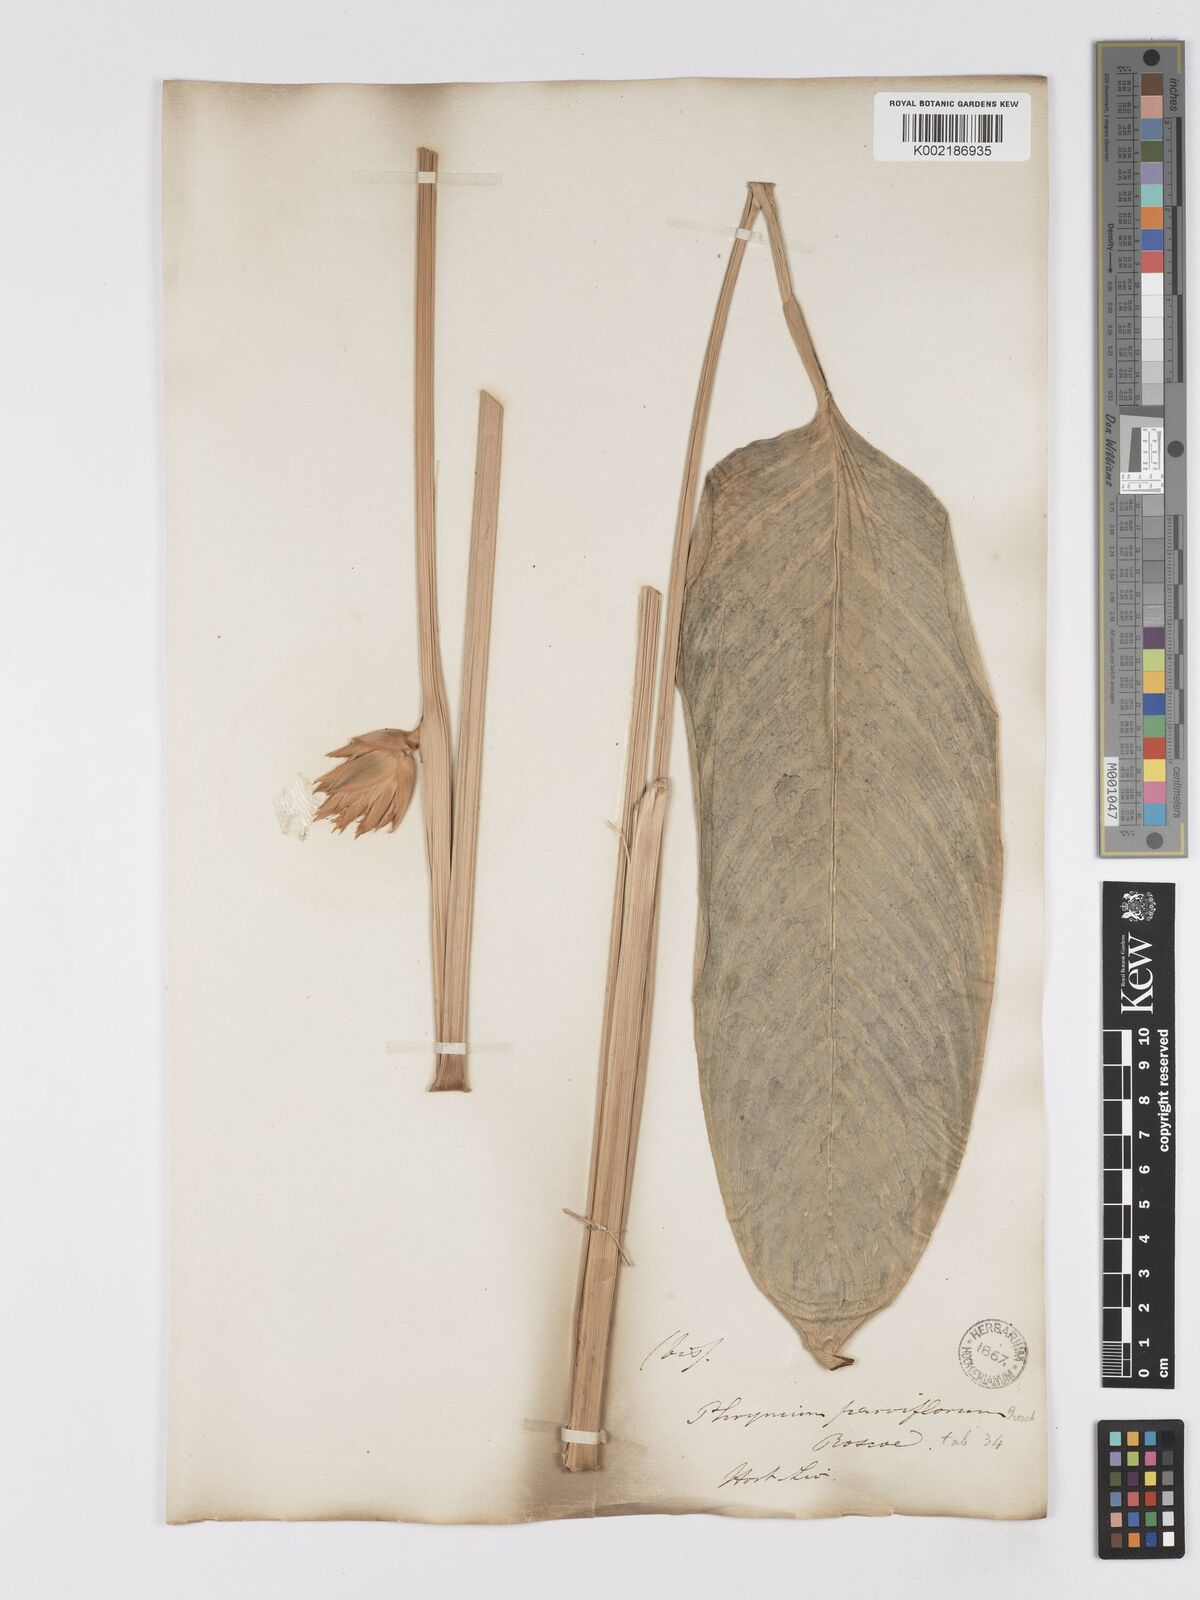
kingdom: Plantae
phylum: Tracheophyta
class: Liliopsida
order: Zingiberales
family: Marantaceae
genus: Stachyphrynium
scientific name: Stachyphrynium placentarium
